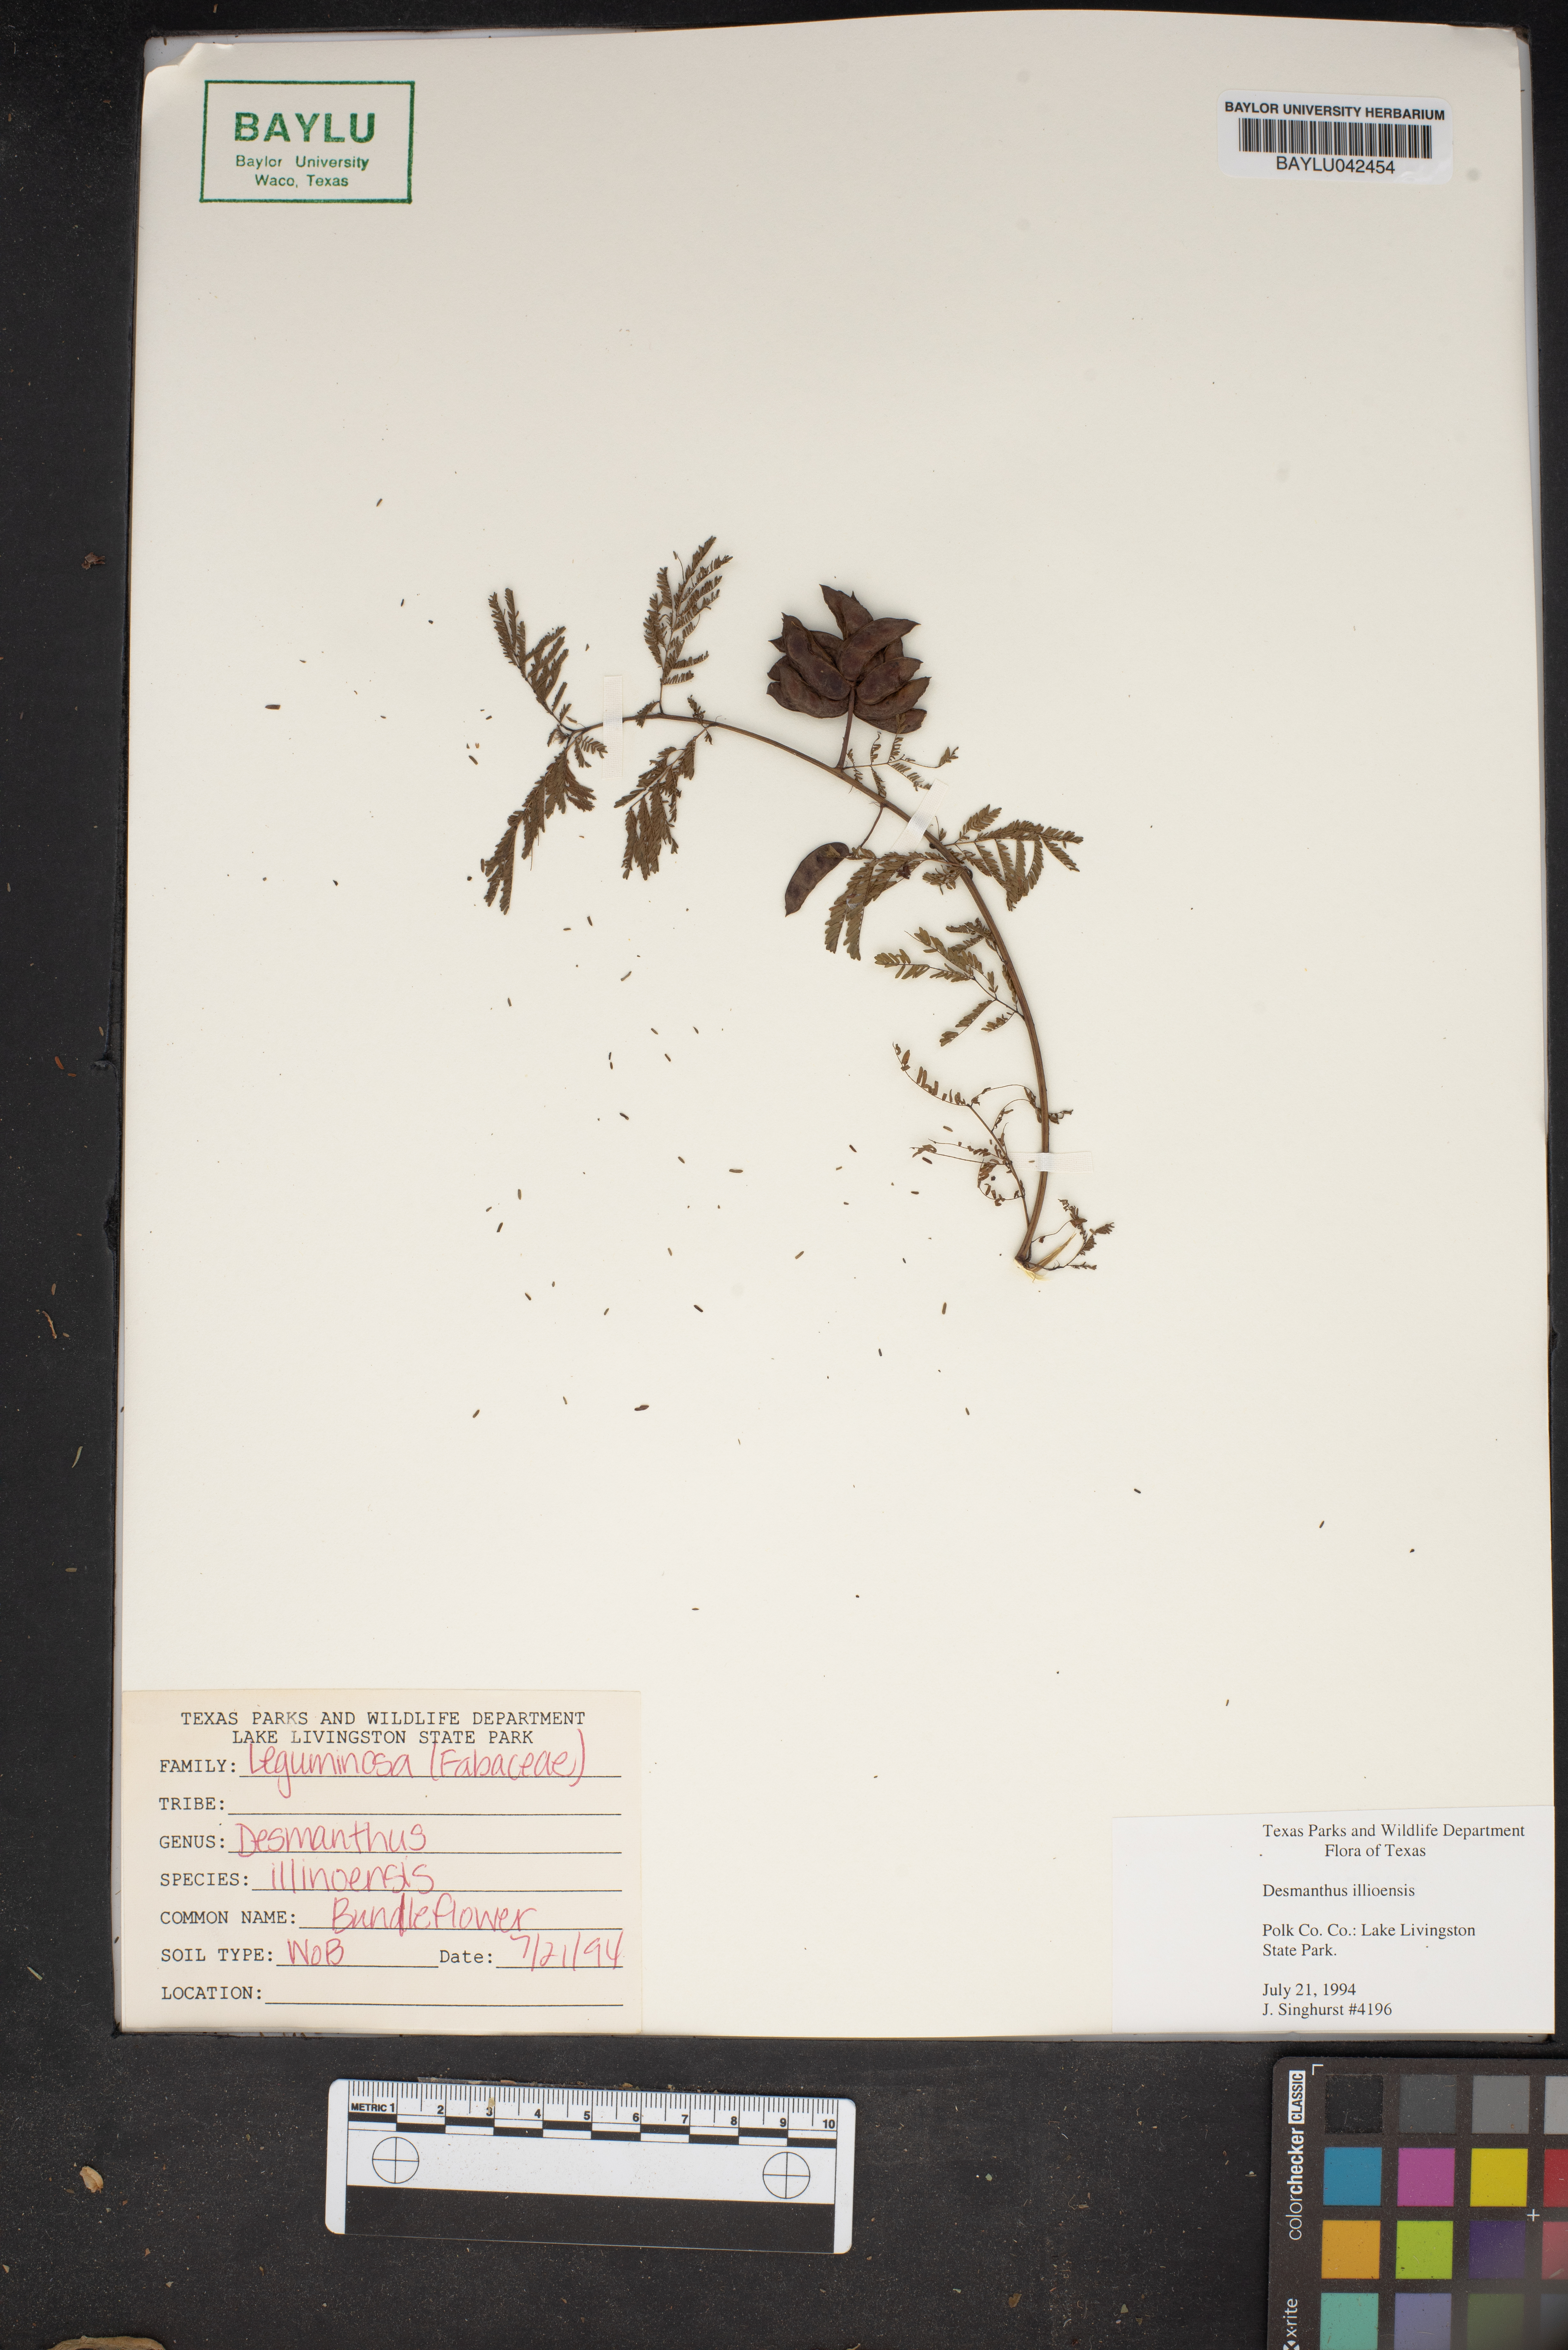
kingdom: Plantae
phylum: Tracheophyta
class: Magnoliopsida
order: Fabales
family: Fabaceae
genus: Desmanthus
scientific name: Desmanthus illinoensis
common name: Illinois bundle-flower
